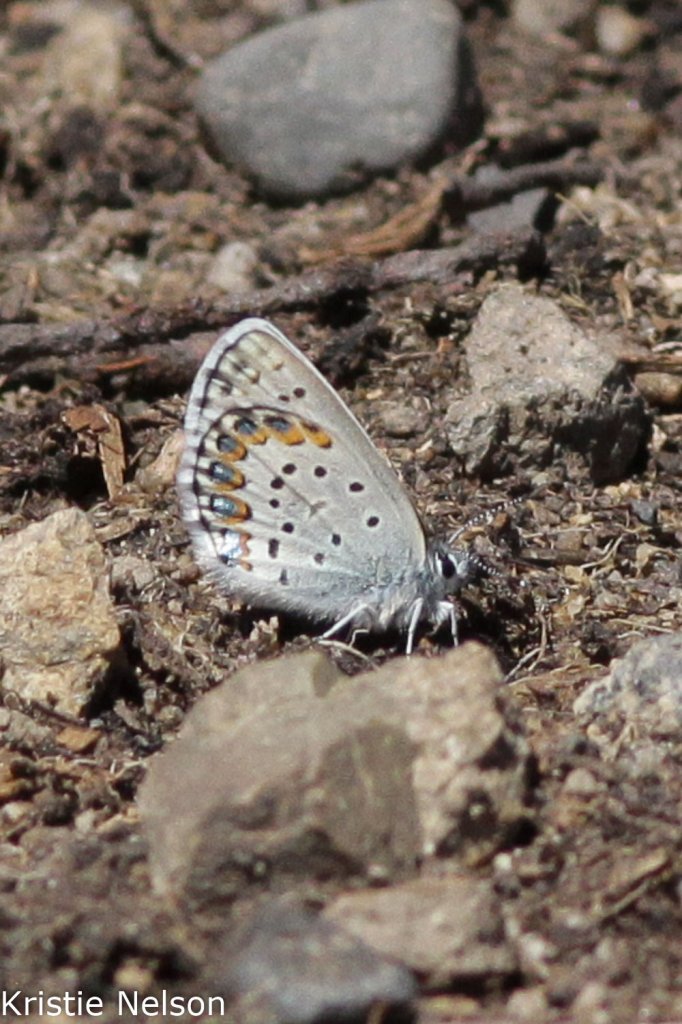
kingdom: Animalia
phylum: Arthropoda
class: Insecta
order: Lepidoptera
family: Lycaenidae
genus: Lycaeides
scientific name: Lycaeides anna
